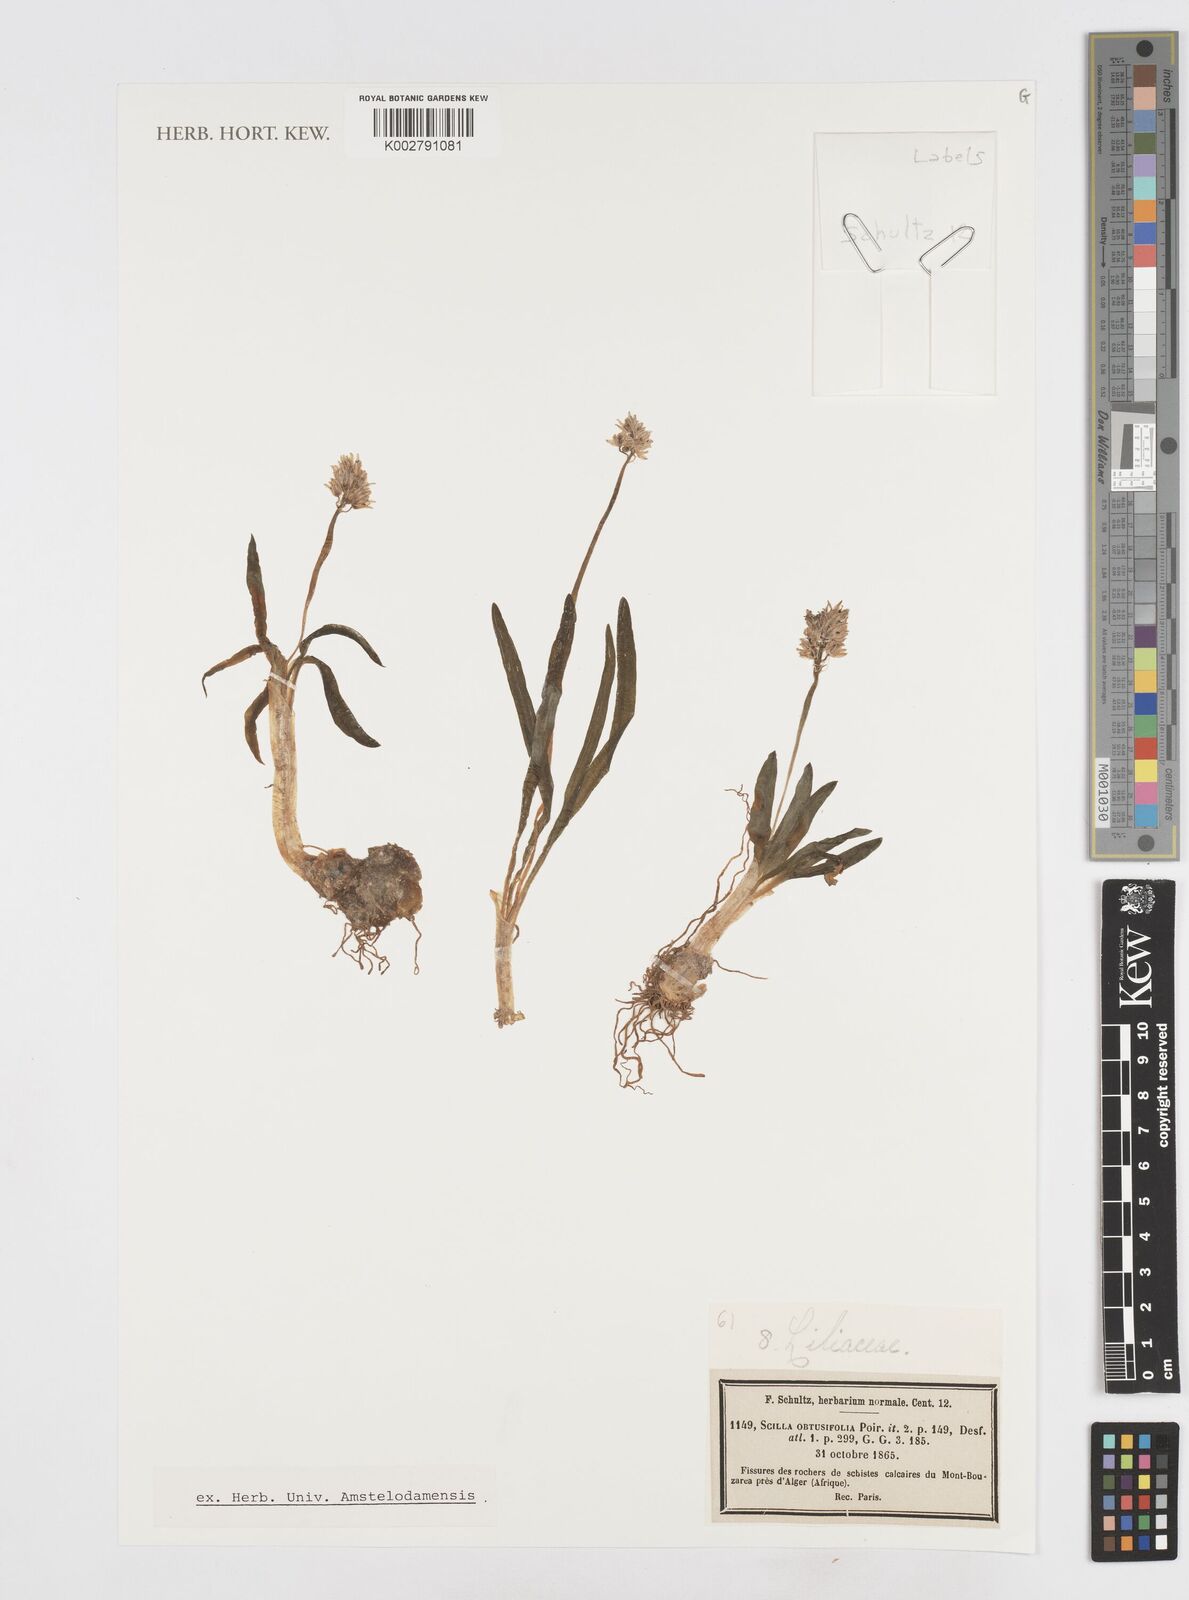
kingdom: Plantae
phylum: Tracheophyta
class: Liliopsida
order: Asparagales
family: Asparagaceae
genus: Prospero
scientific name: Prospero obtusifolium
